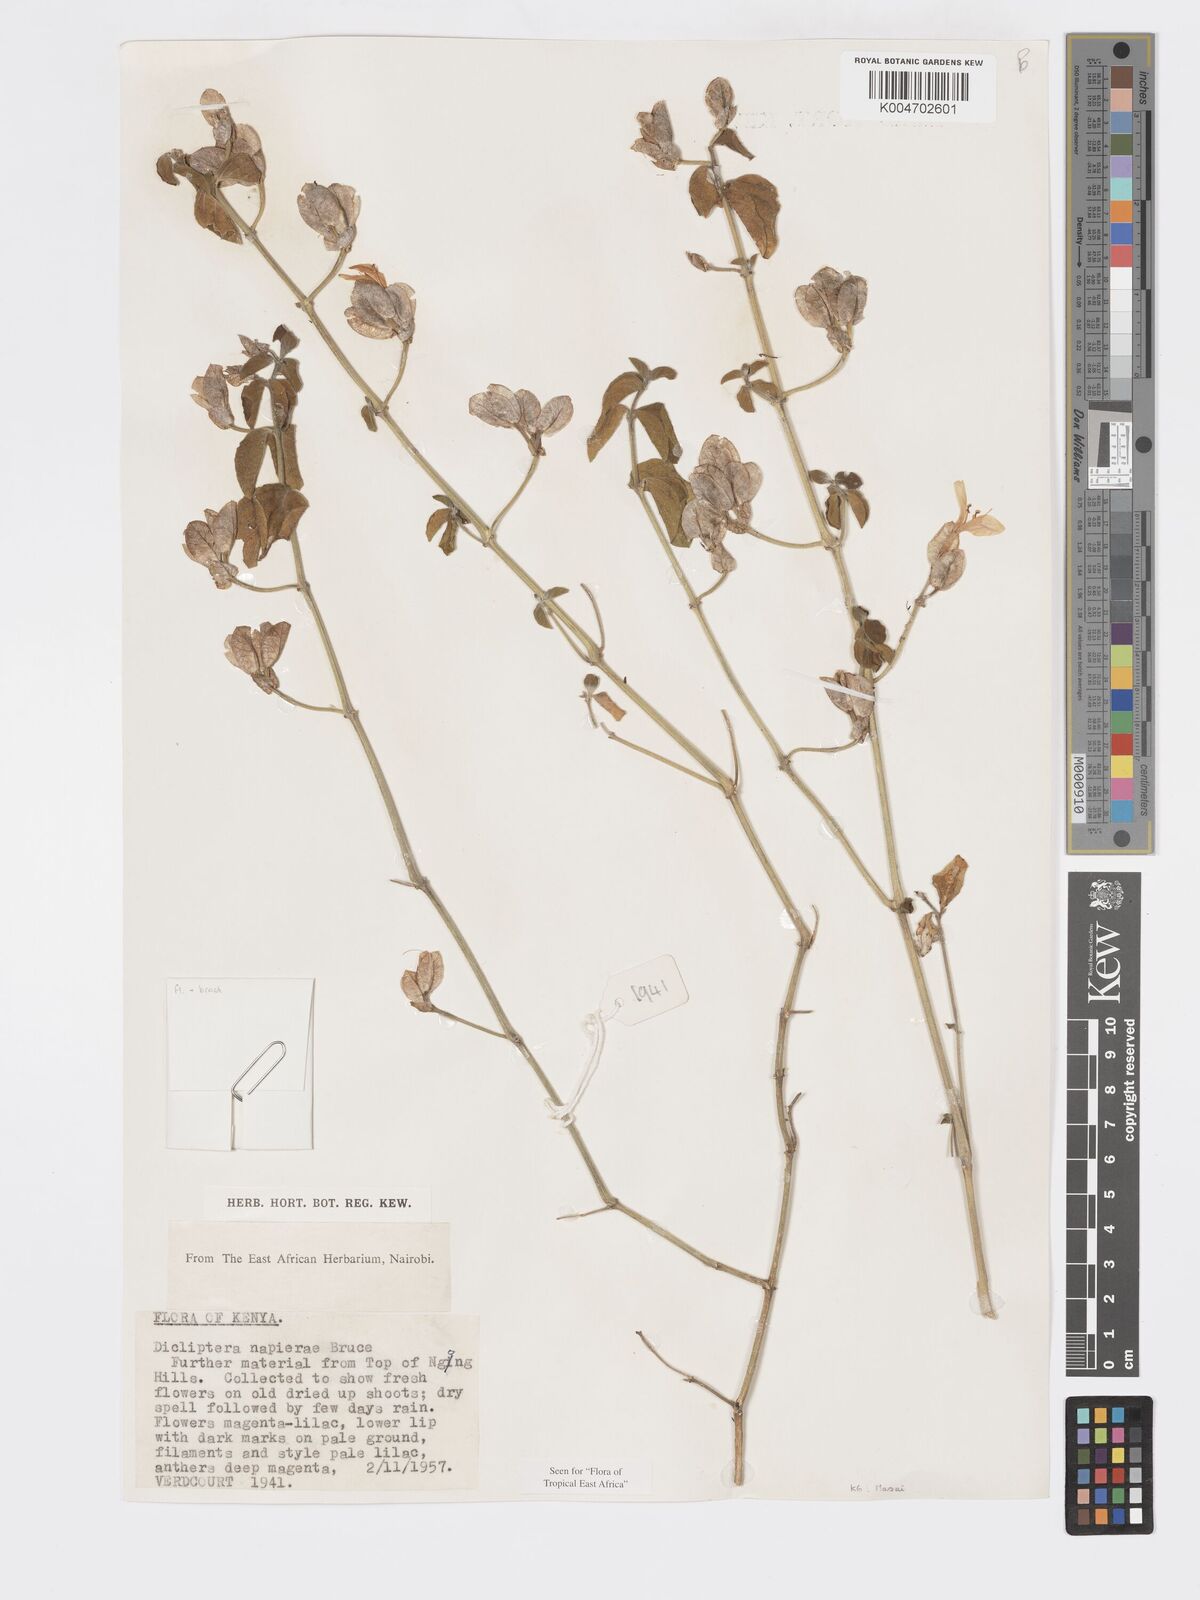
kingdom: Plantae
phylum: Tracheophyta
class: Magnoliopsida
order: Lamiales
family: Acanthaceae
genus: Dicliptera
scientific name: Dicliptera napierae
